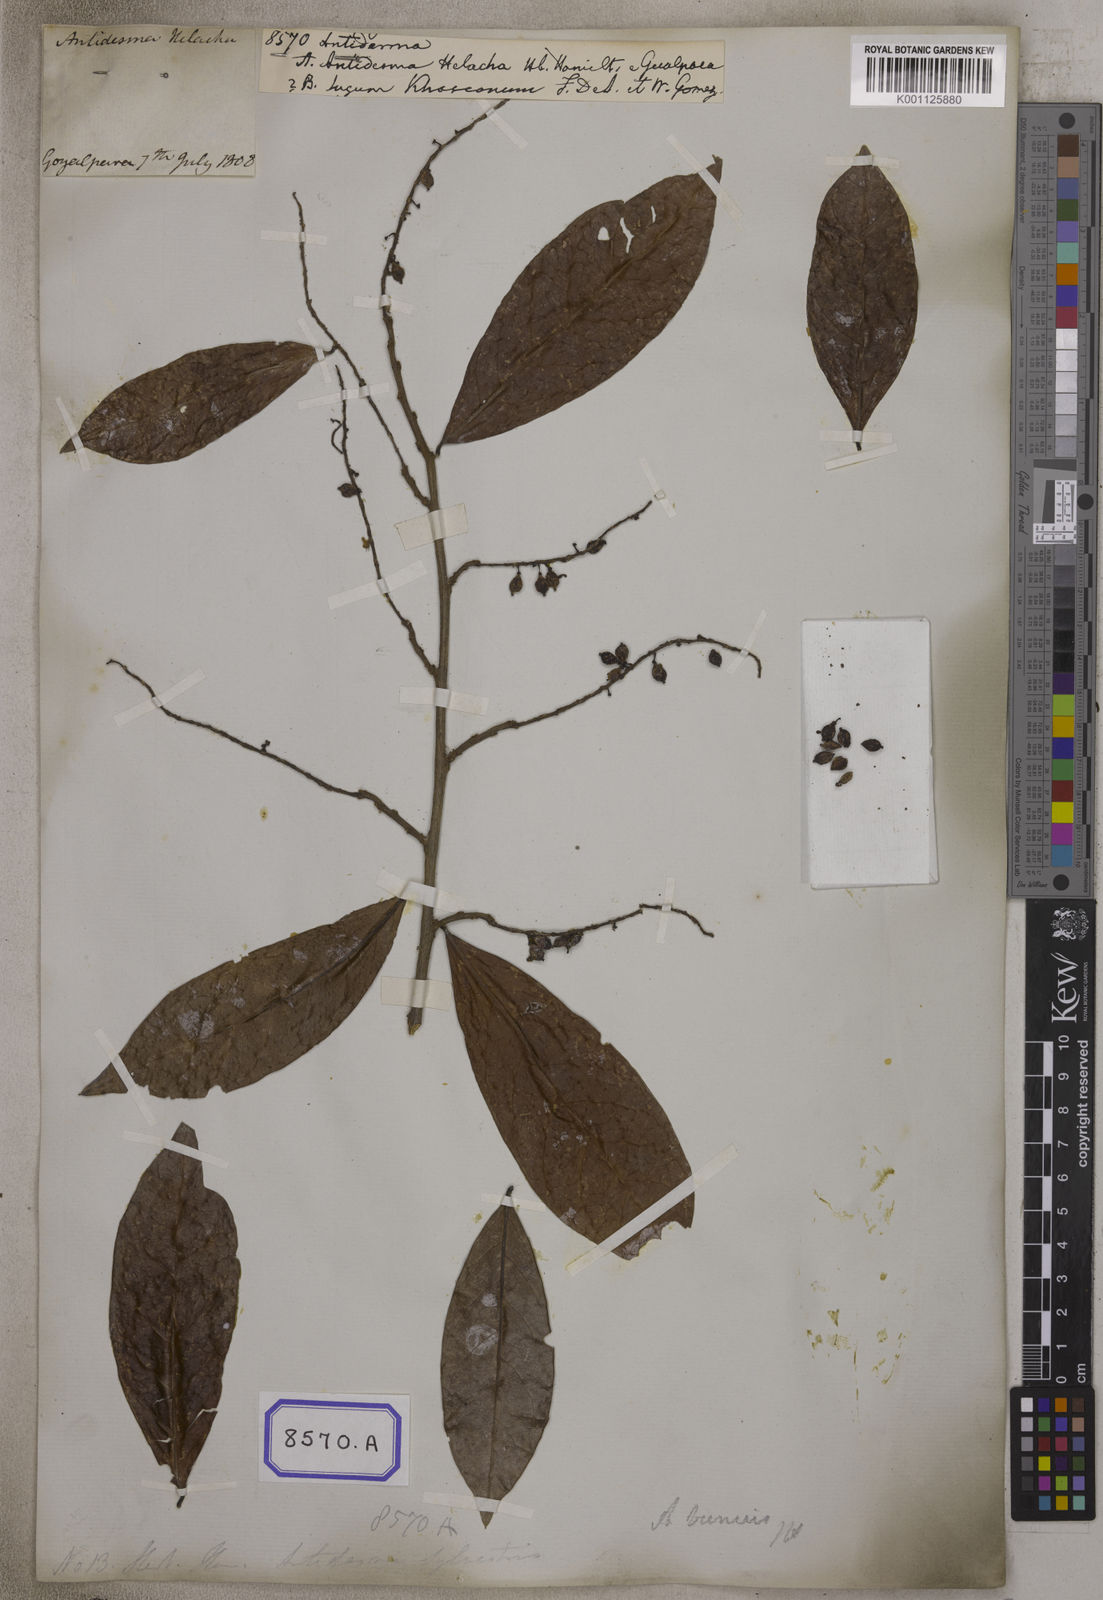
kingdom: Plantae
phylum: Tracheophyta
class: Magnoliopsida
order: Malpighiales
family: Phyllanthaceae
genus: Antidesma
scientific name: Antidesma
